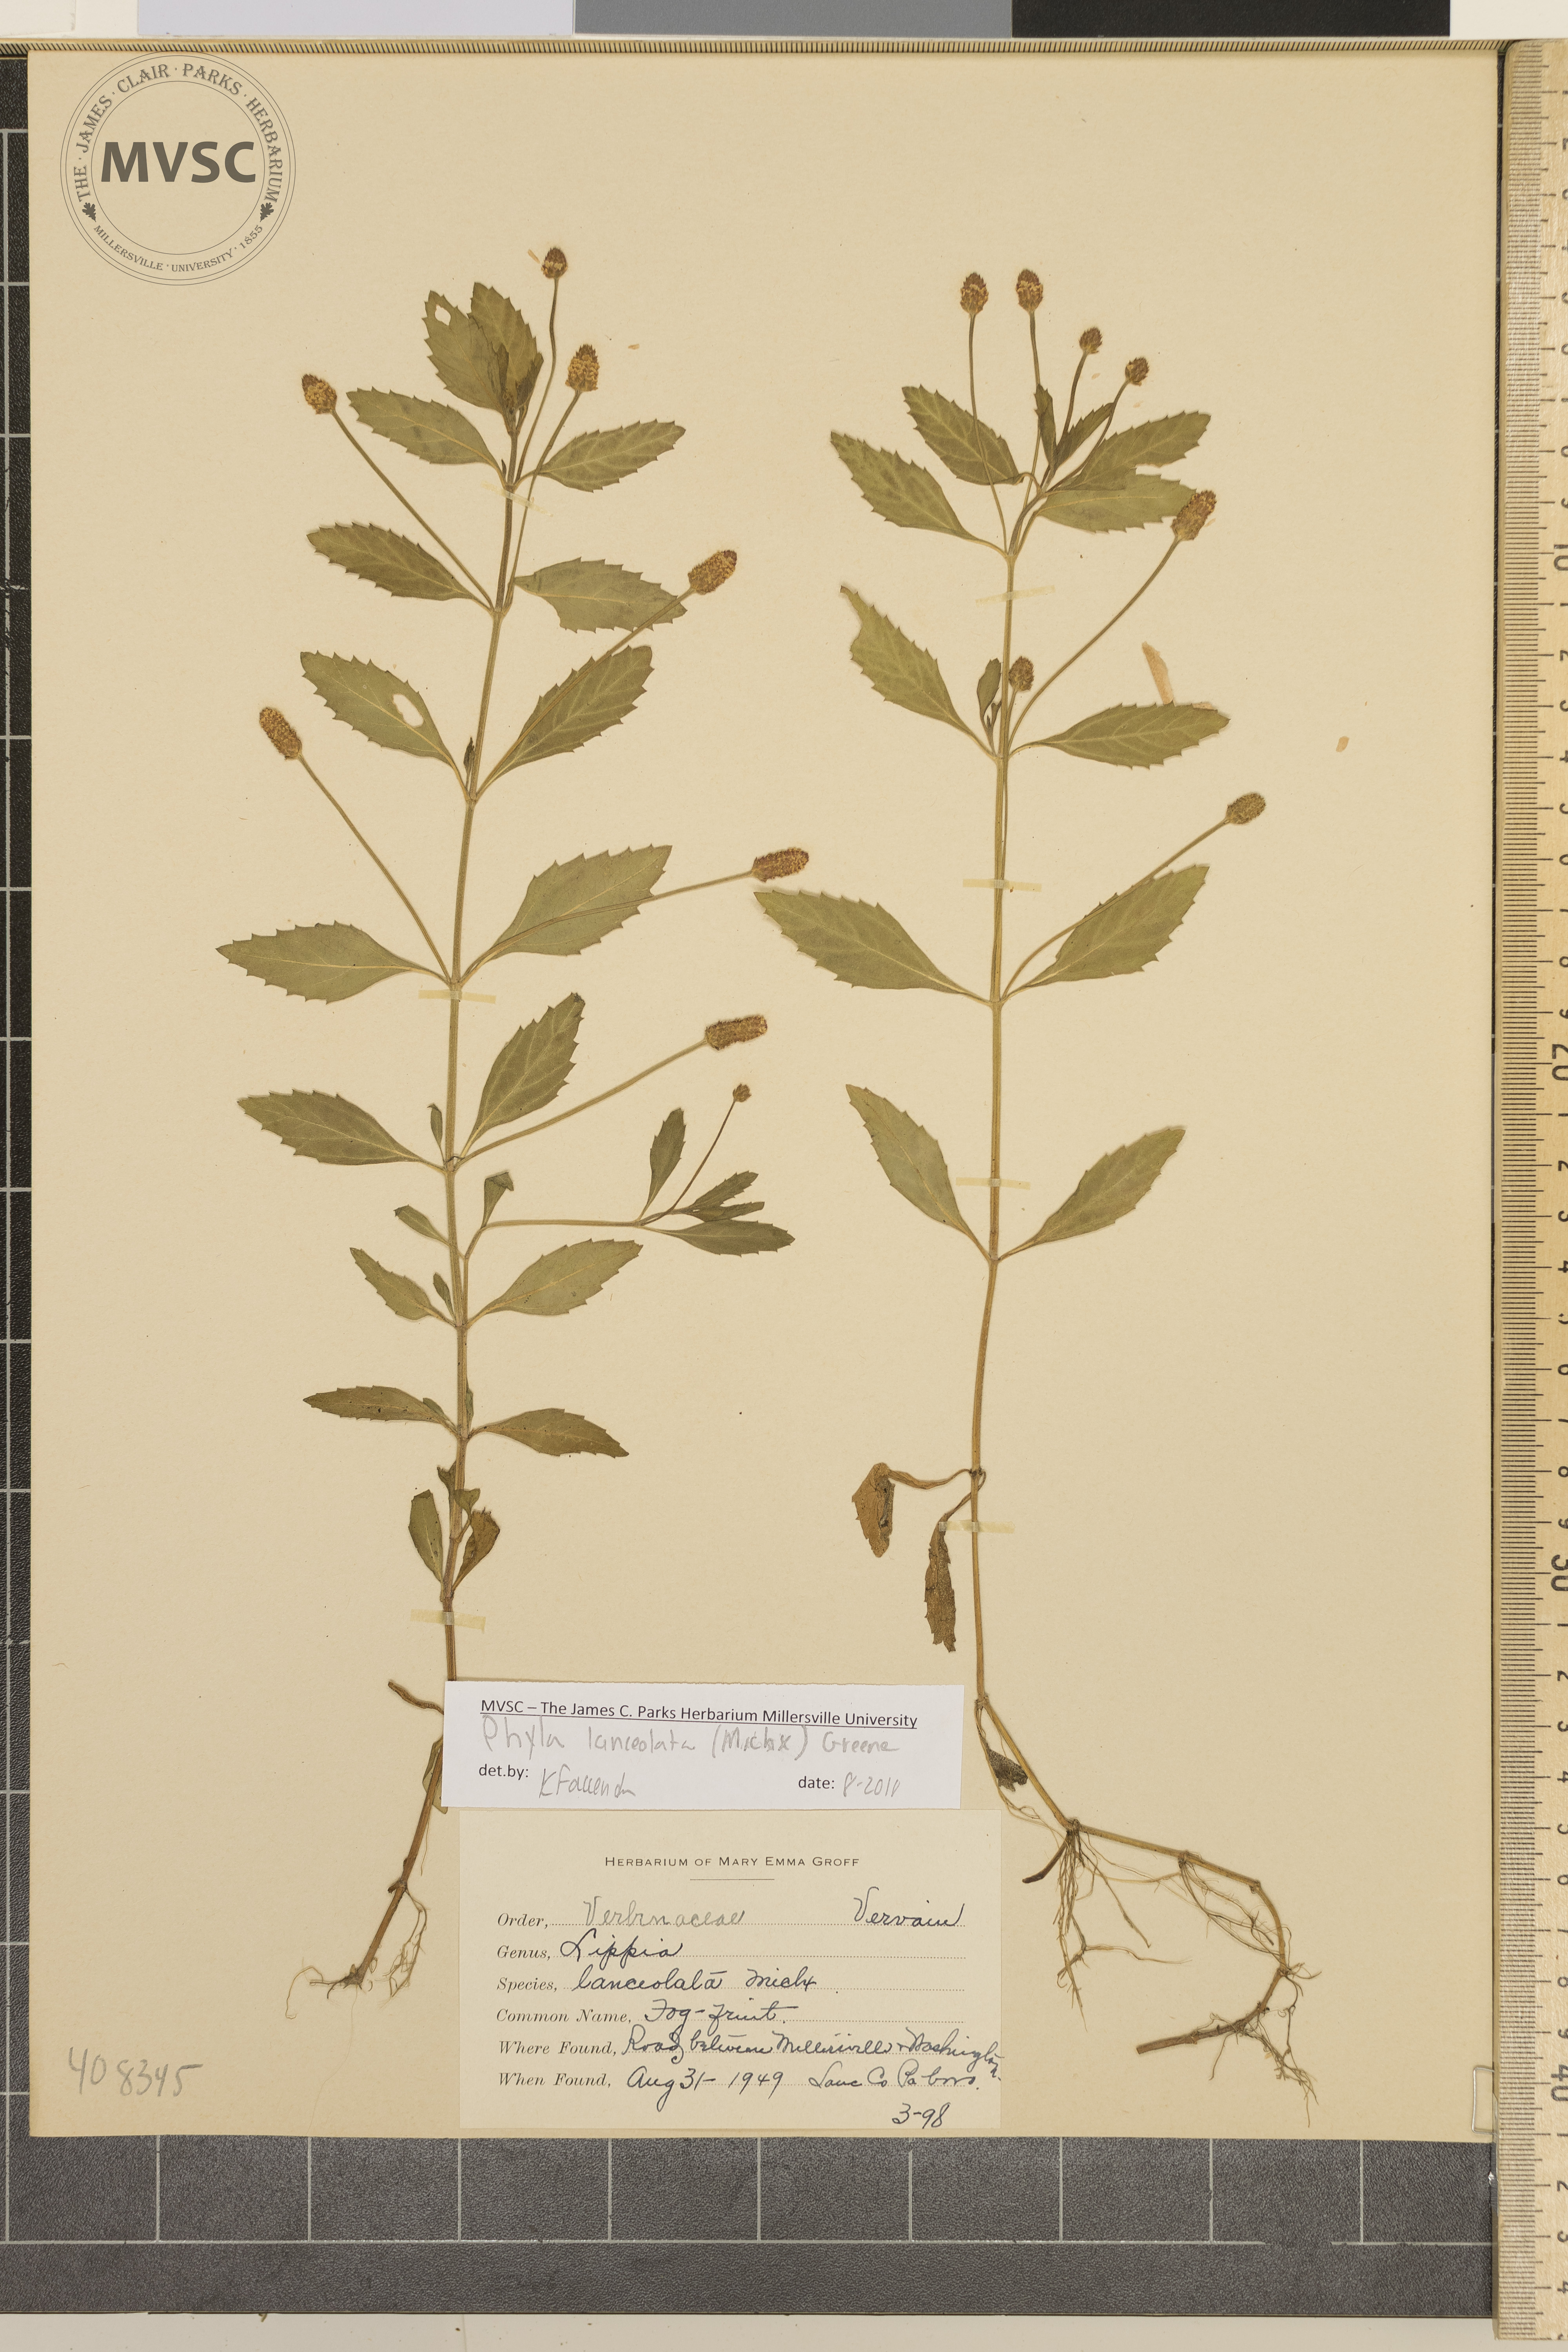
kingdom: Plantae
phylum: Tracheophyta
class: Magnoliopsida
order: Lamiales
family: Verbenaceae
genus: Phyla
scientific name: Phyla lanceolata
